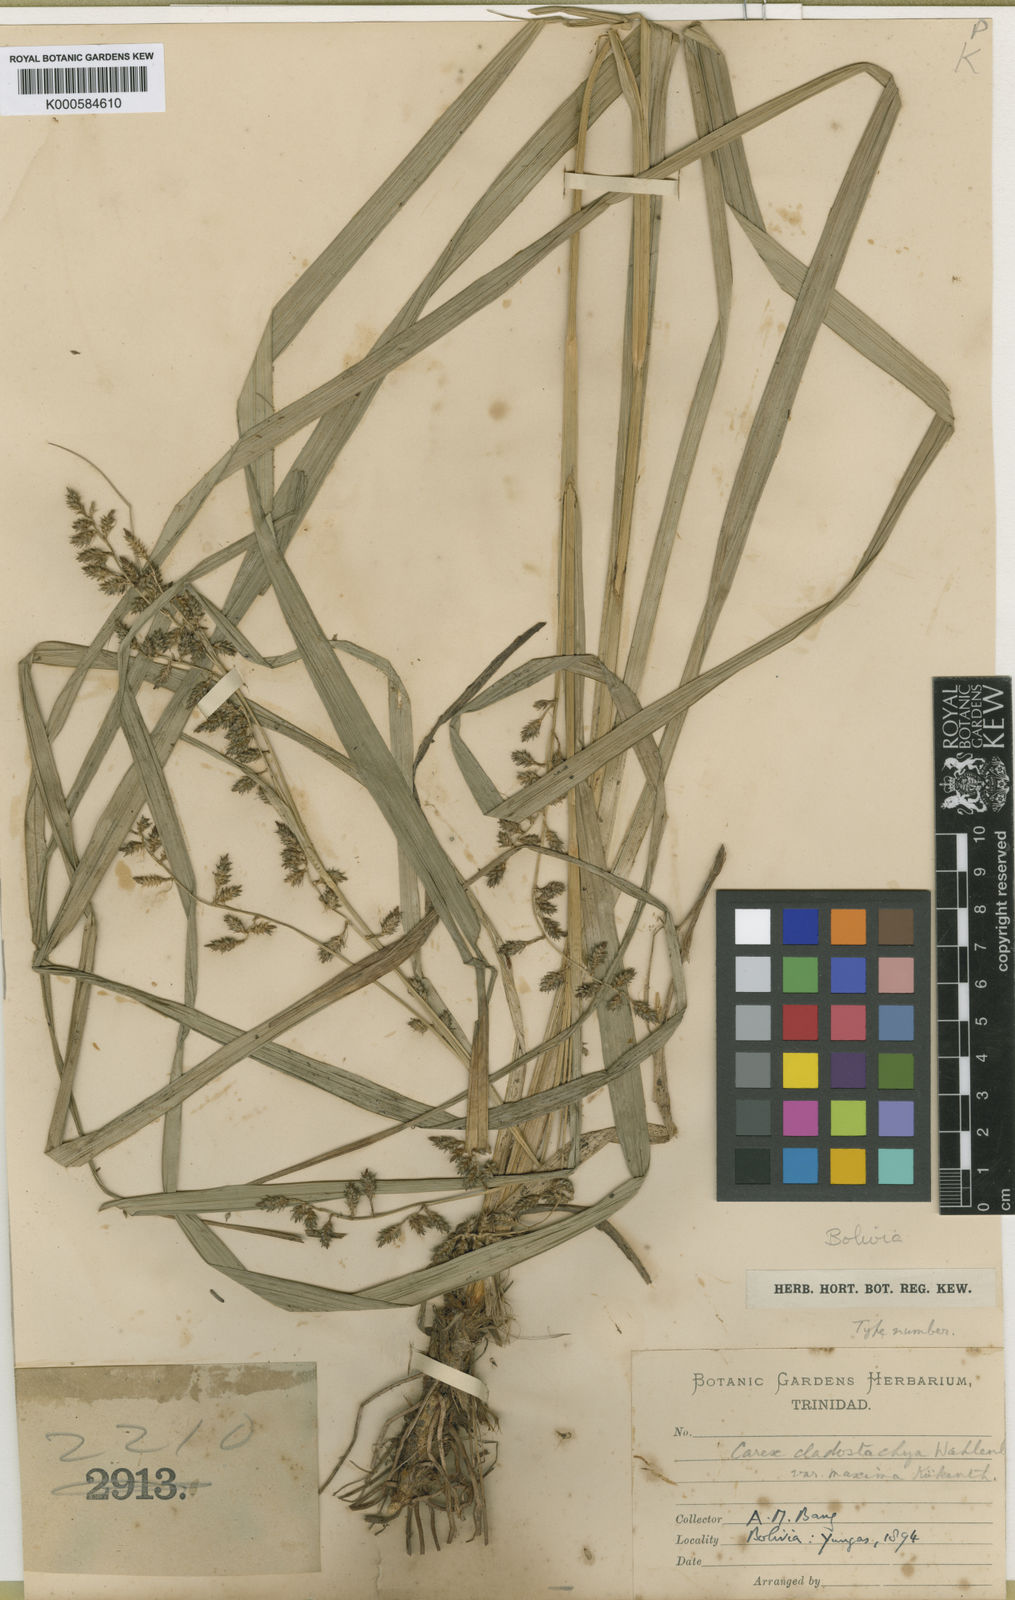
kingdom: Plantae
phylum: Tracheophyta
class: Liliopsida
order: Poales
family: Cyperaceae
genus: Carex
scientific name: Carex polystachya
